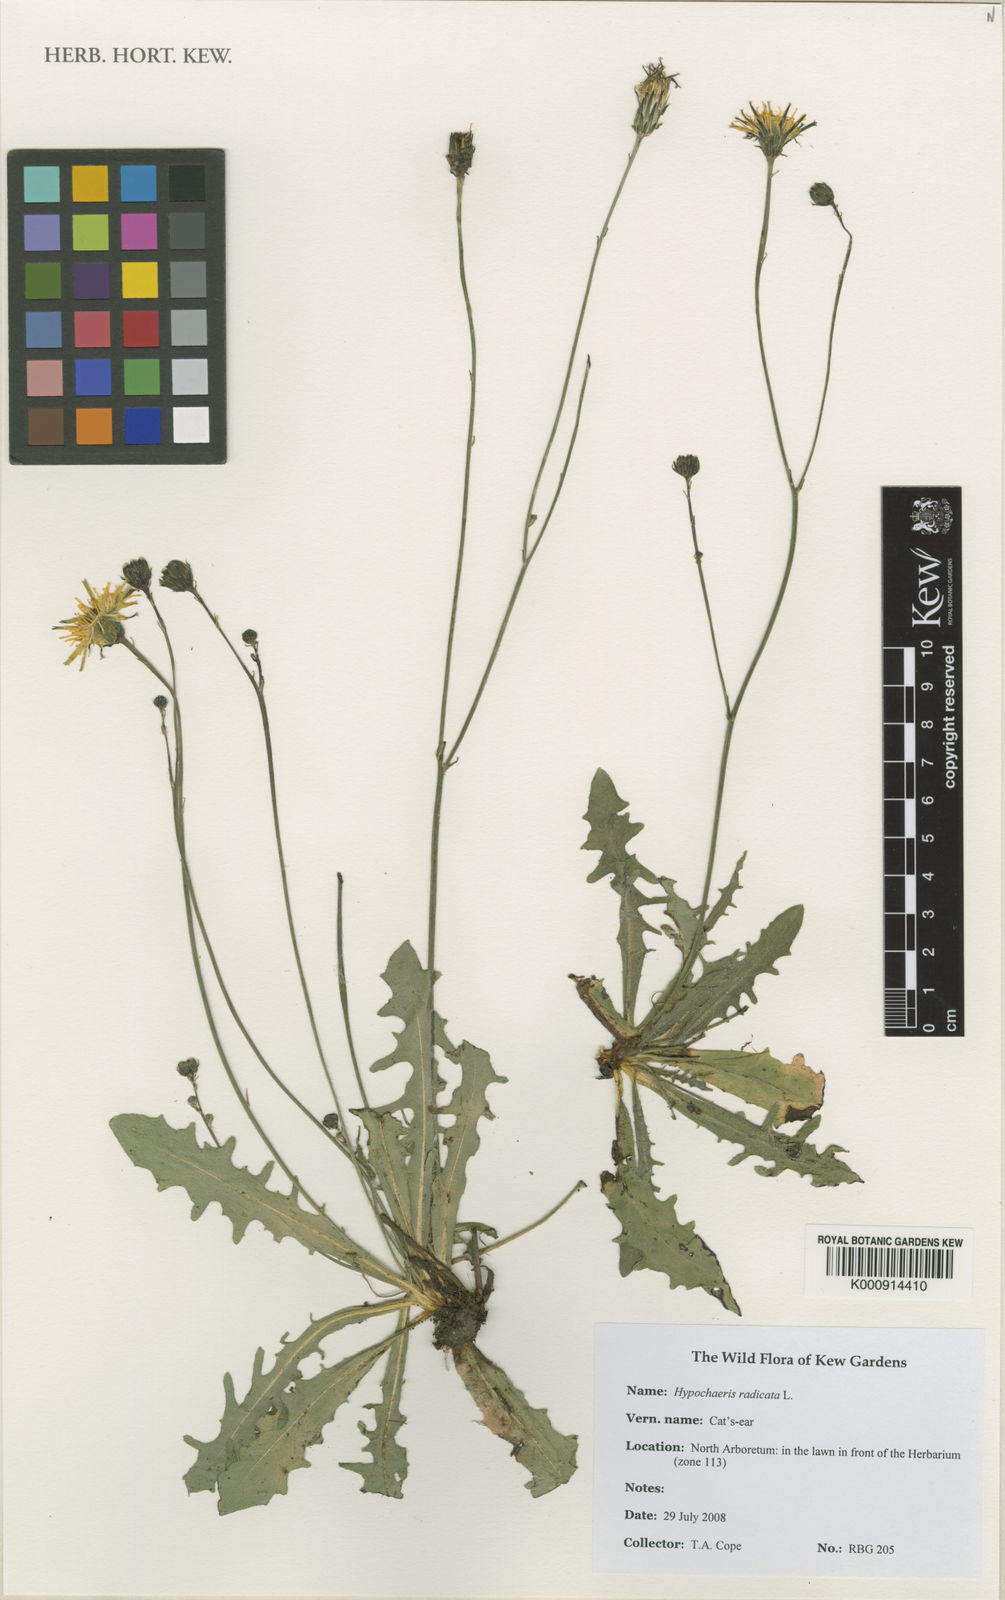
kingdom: Plantae
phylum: Tracheophyta
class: Magnoliopsida
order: Asterales
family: Asteraceae
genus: Hypochaeris
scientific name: Hypochaeris radicata
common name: Flatweed
